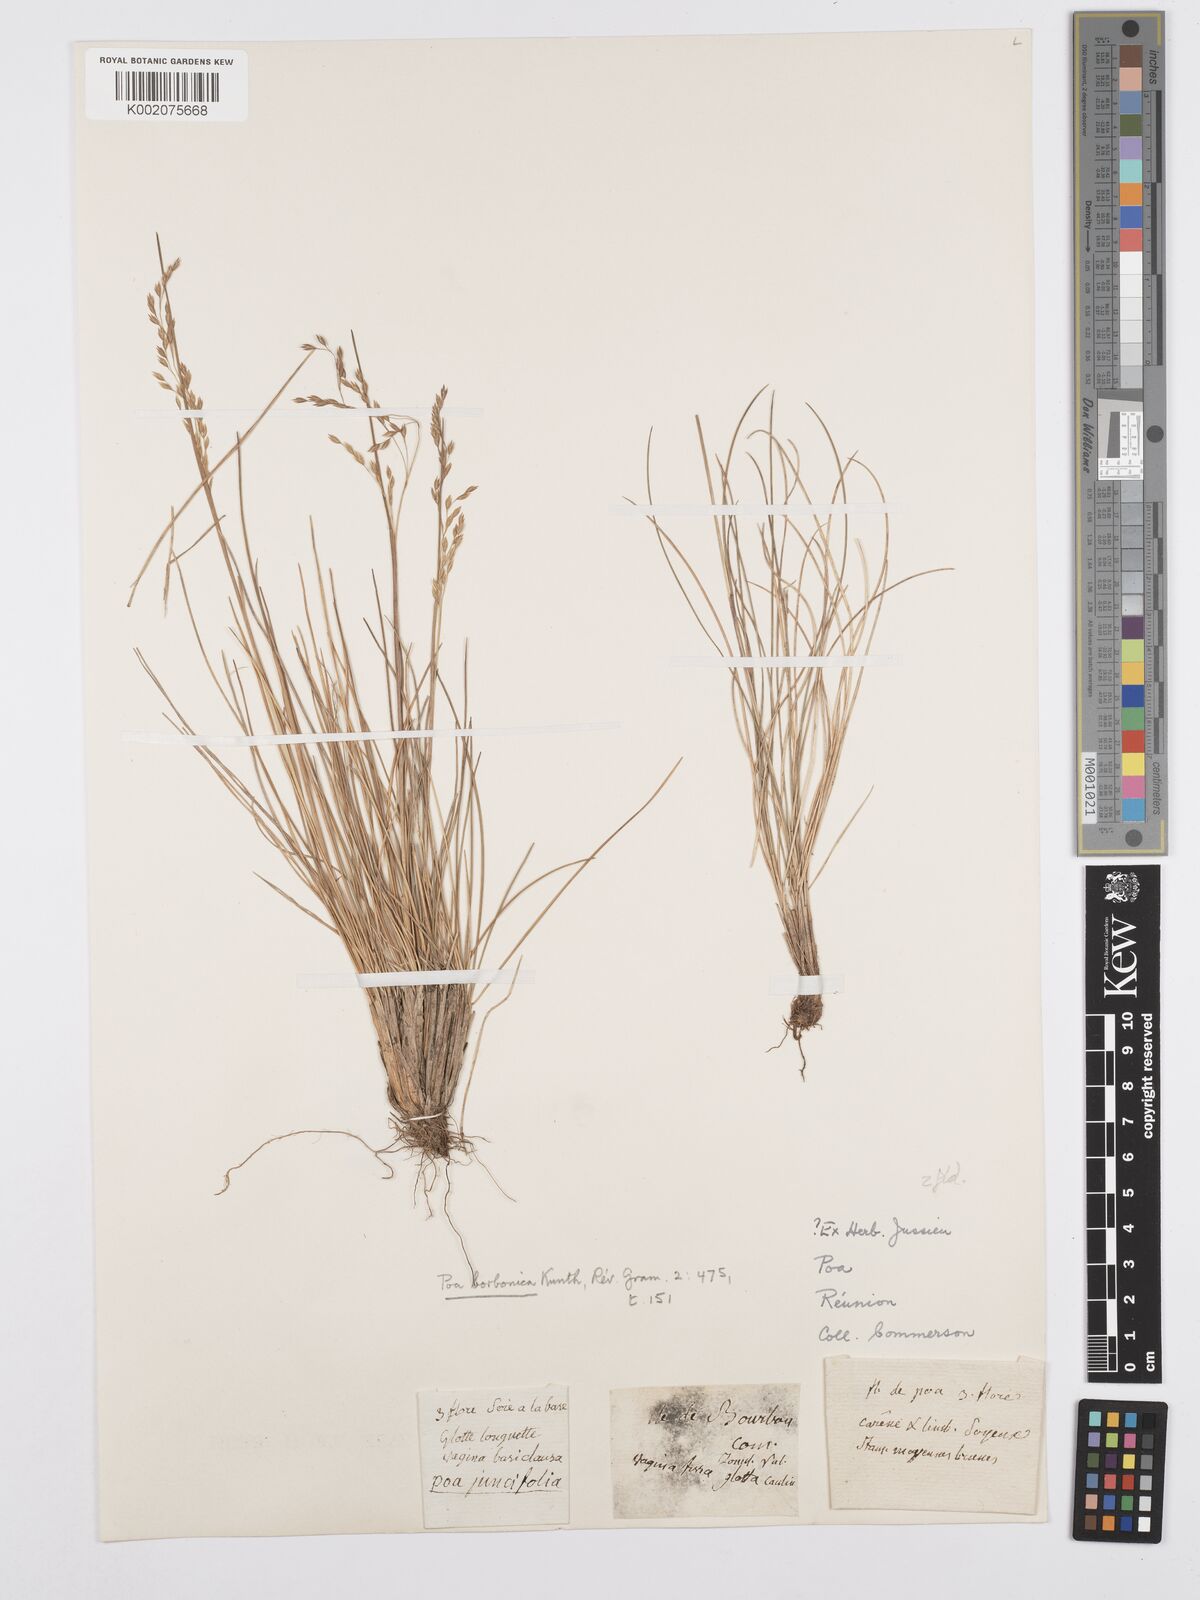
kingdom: Plantae
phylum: Tracheophyta
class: Liliopsida
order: Poales
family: Poaceae
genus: Poa
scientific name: Poa borbonica
